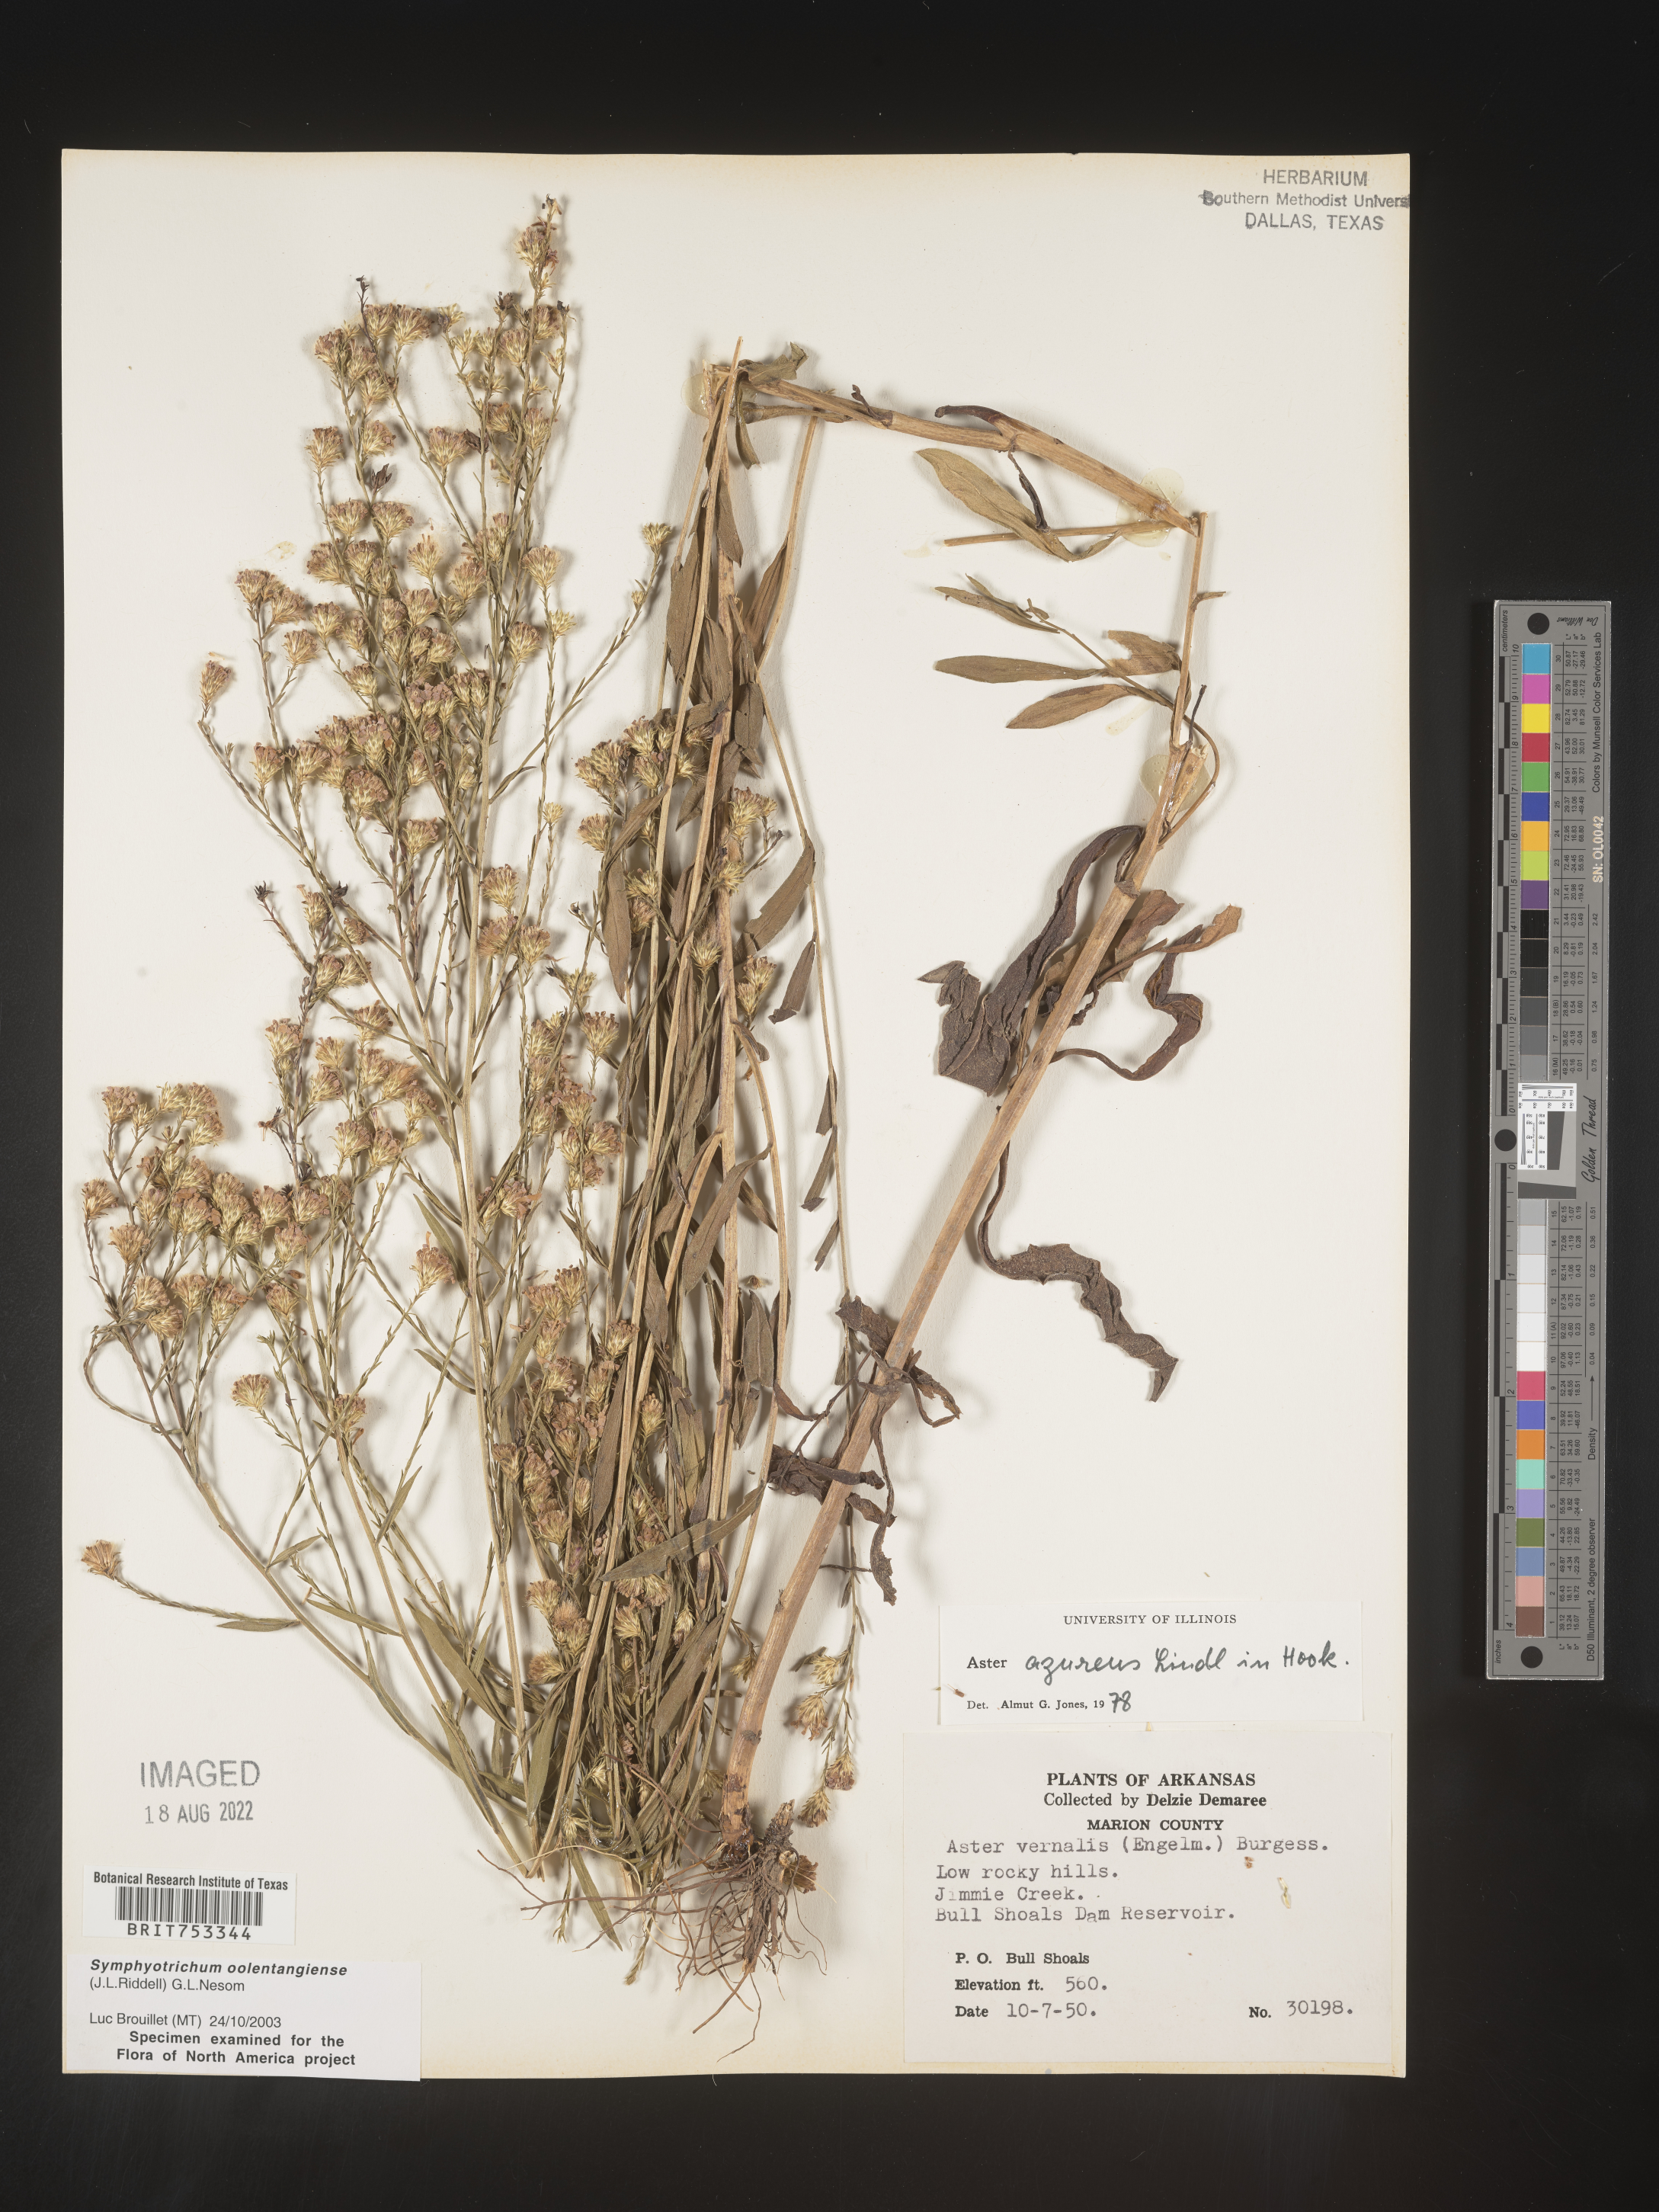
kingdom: Plantae
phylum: Tracheophyta
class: Magnoliopsida
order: Asterales
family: Asteraceae
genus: Symphyotrichum
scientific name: Symphyotrichum oolentangiense
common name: Azure aster
